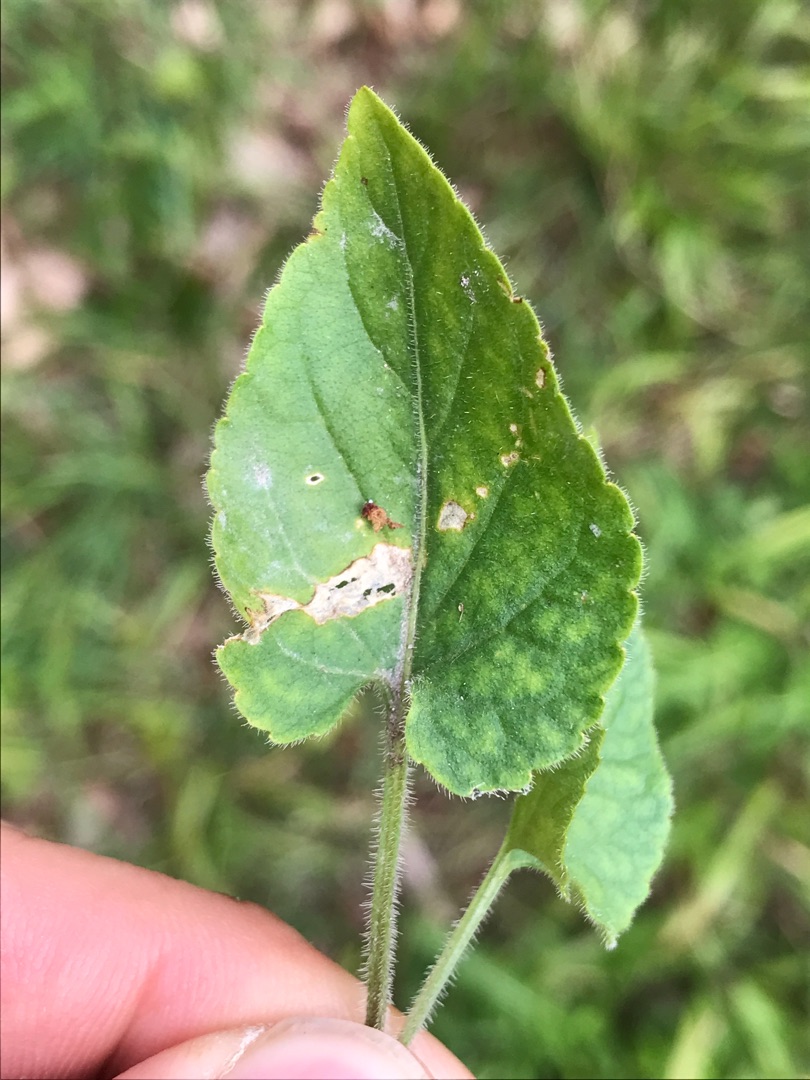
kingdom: Plantae
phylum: Tracheophyta
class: Magnoliopsida
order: Malpighiales
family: Violaceae
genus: Viola
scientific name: Viola hirta
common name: Håret viol
